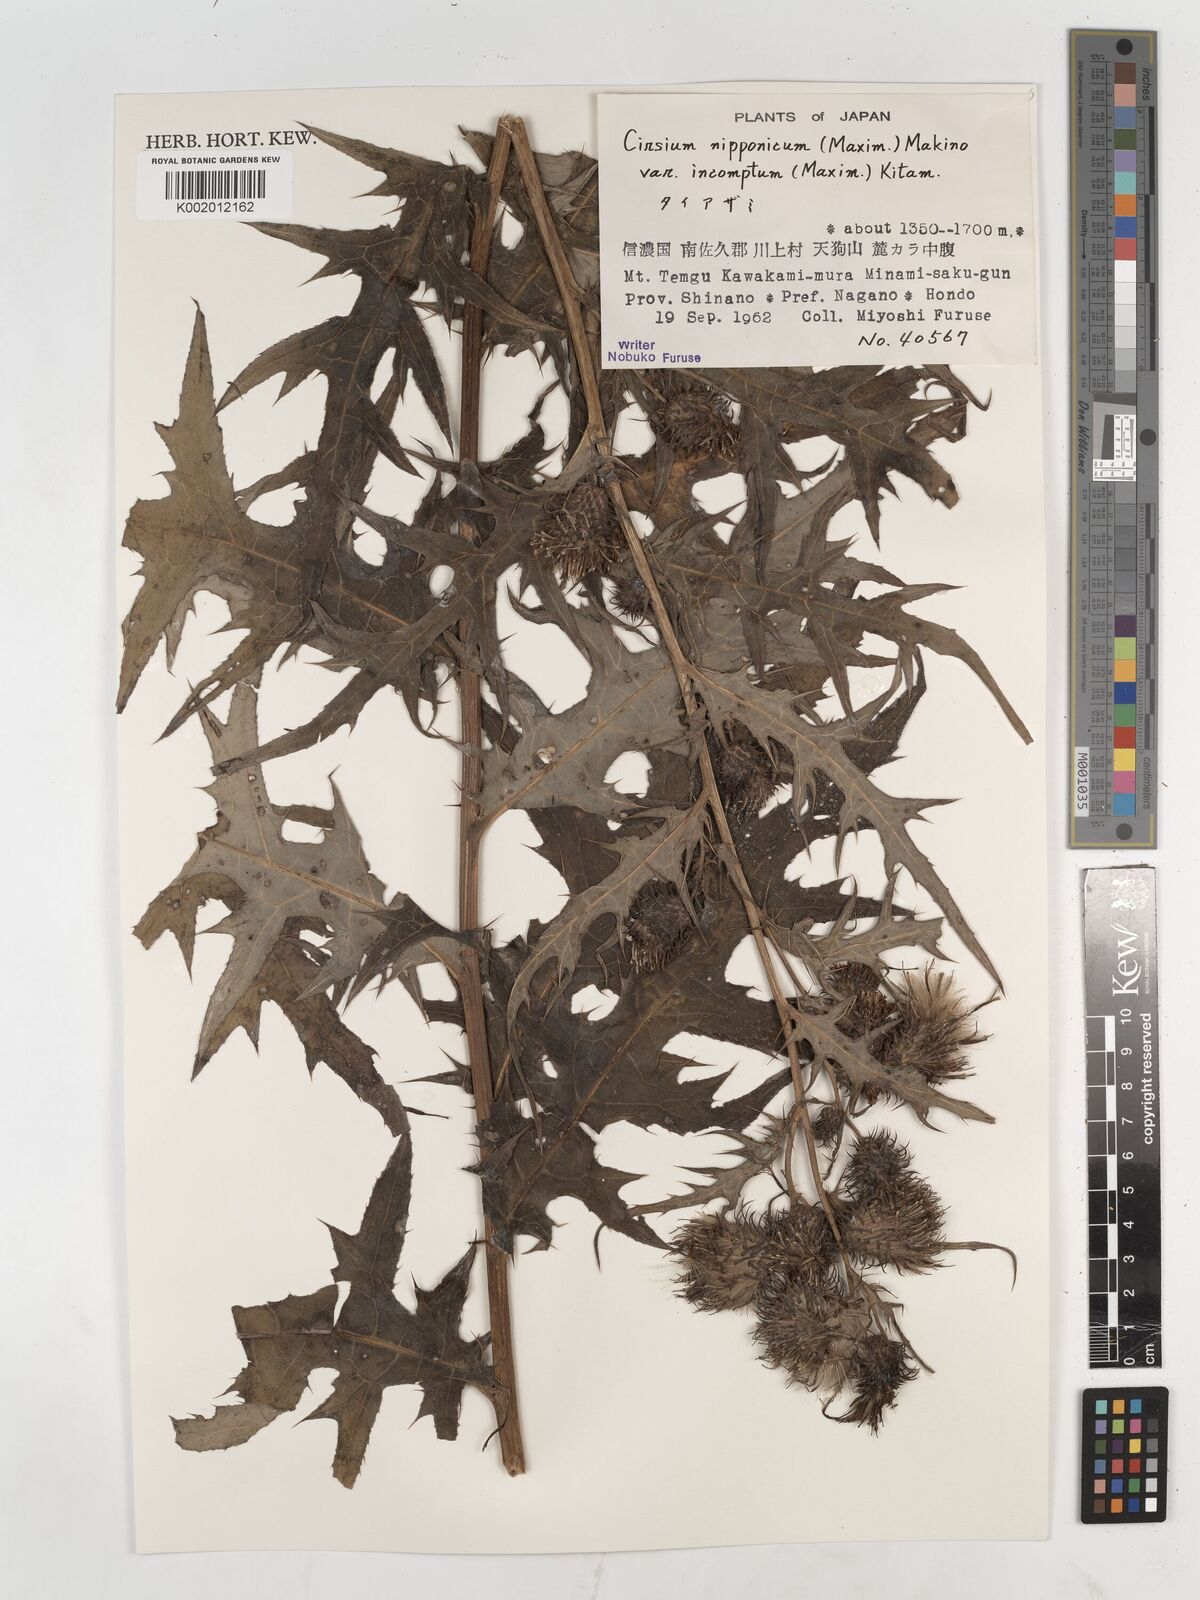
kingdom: Plantae
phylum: Tracheophyta
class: Magnoliopsida
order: Asterales
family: Asteraceae
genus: Cirsium
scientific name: Cirsium nipponicum
